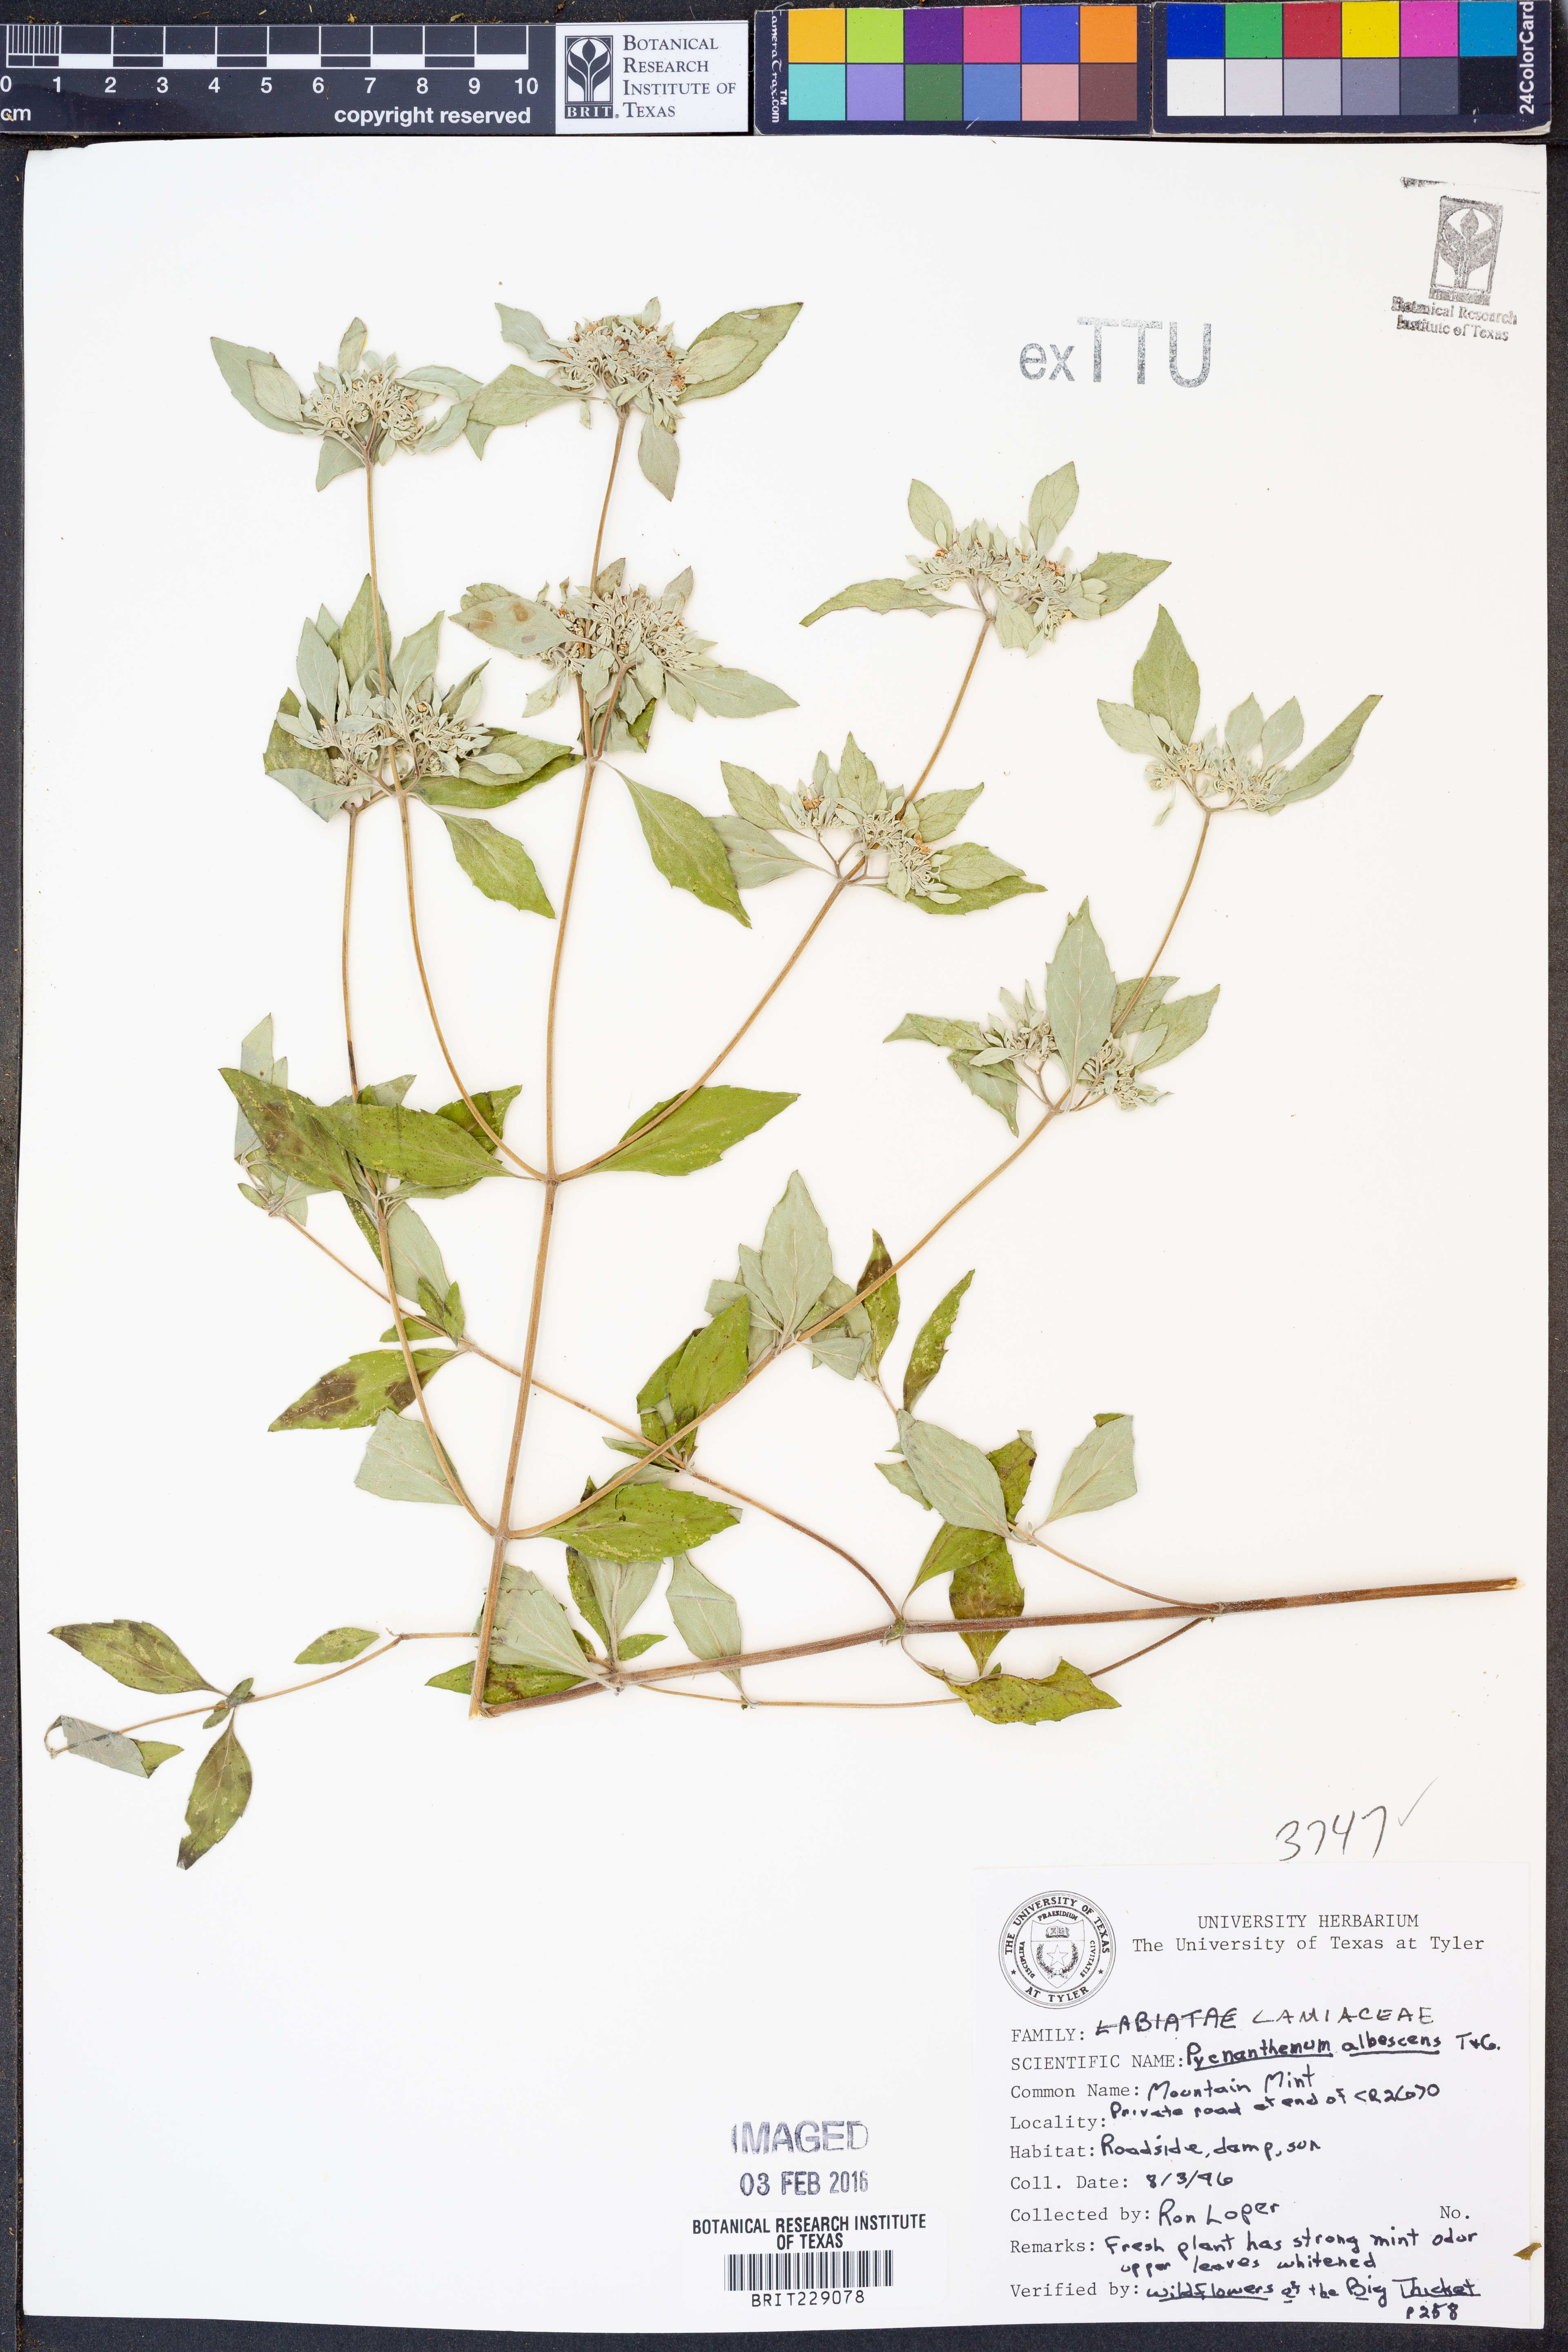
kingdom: Plantae
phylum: Tracheophyta
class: Magnoliopsida
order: Lamiales
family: Lamiaceae
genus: Pycnanthemum
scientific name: Pycnanthemum albescens
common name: White-leaf mountain-mint
